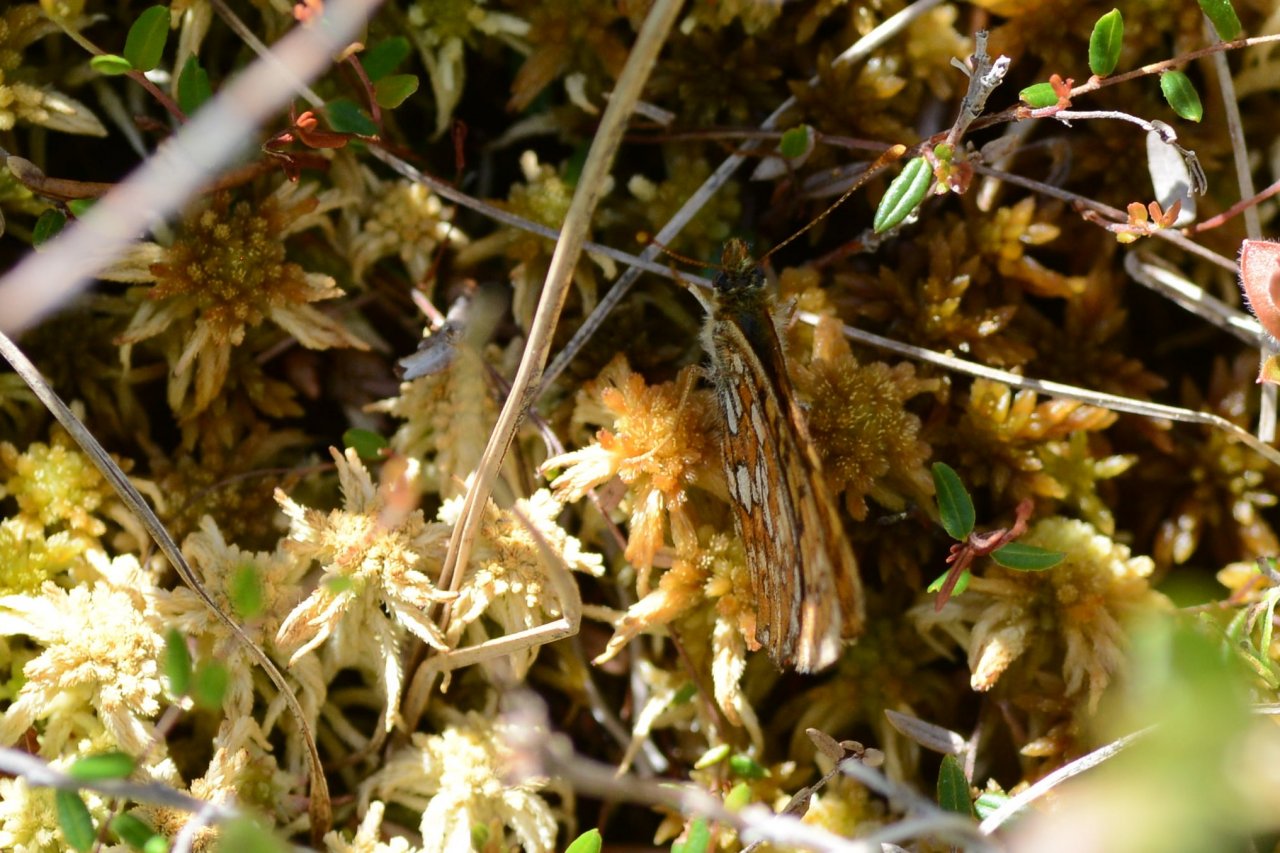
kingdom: Animalia
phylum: Arthropoda
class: Insecta
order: Lepidoptera
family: Nymphalidae
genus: Boloria
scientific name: Boloria eunomia
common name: Bog Fritillary
